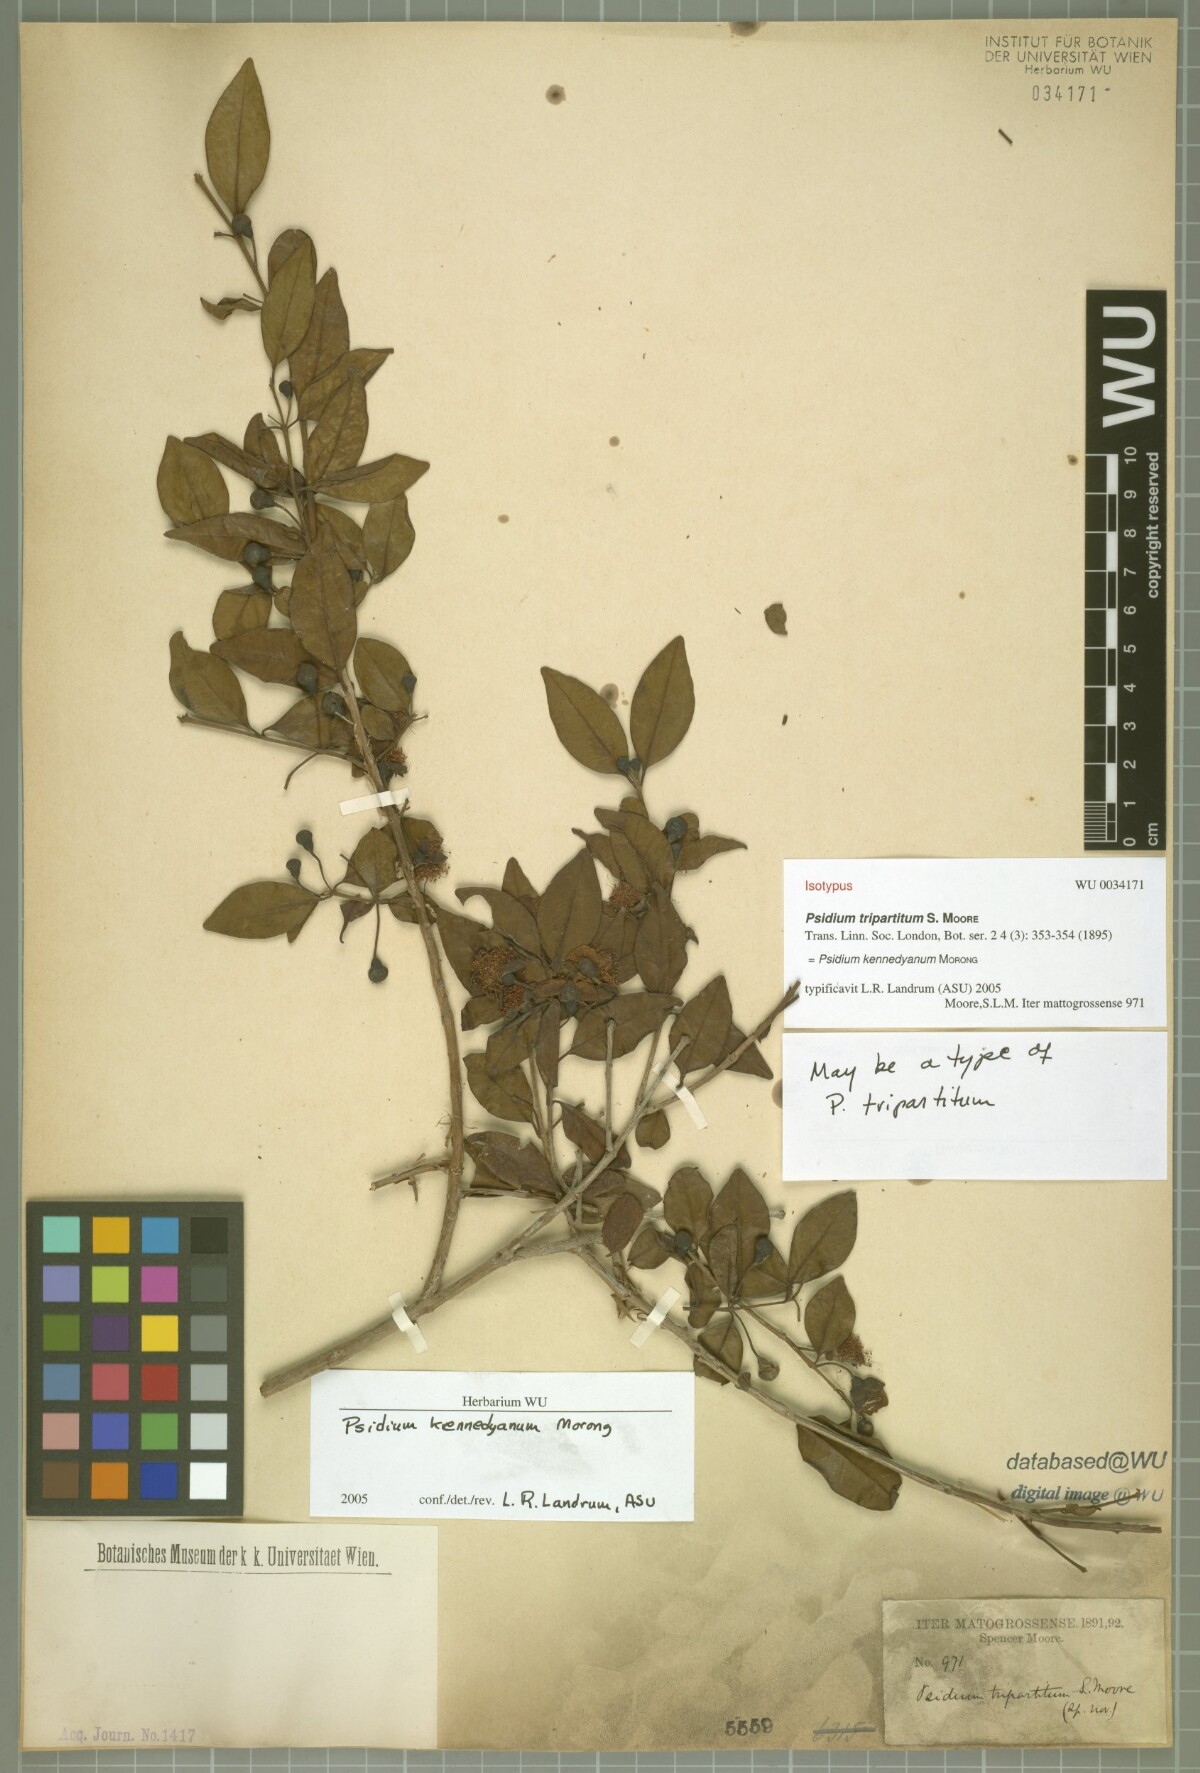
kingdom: Plantae
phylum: Tracheophyta
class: Magnoliopsida
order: Myrtales
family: Myrtaceae
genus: Psidium
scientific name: Psidium kennedyanum
